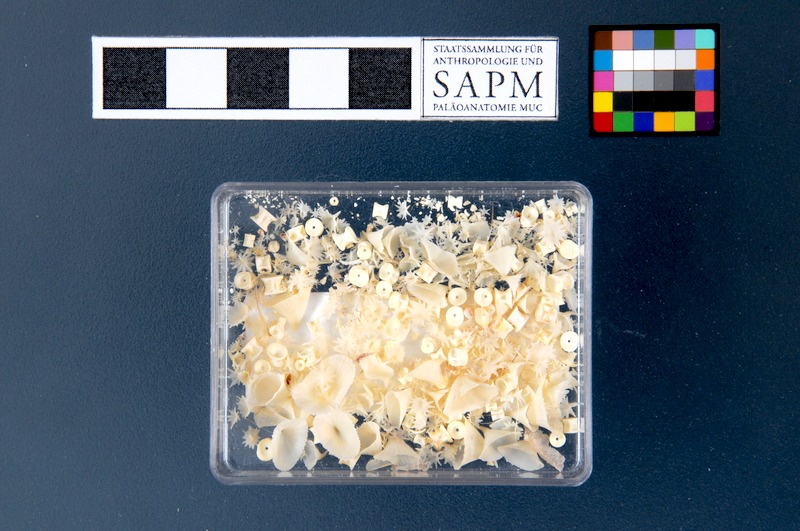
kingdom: Animalia
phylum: Chordata
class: Elasmobranchii
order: Rajiformes
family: Rajidae
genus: Amblyraja
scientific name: Amblyraja radiata
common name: Starry ray
